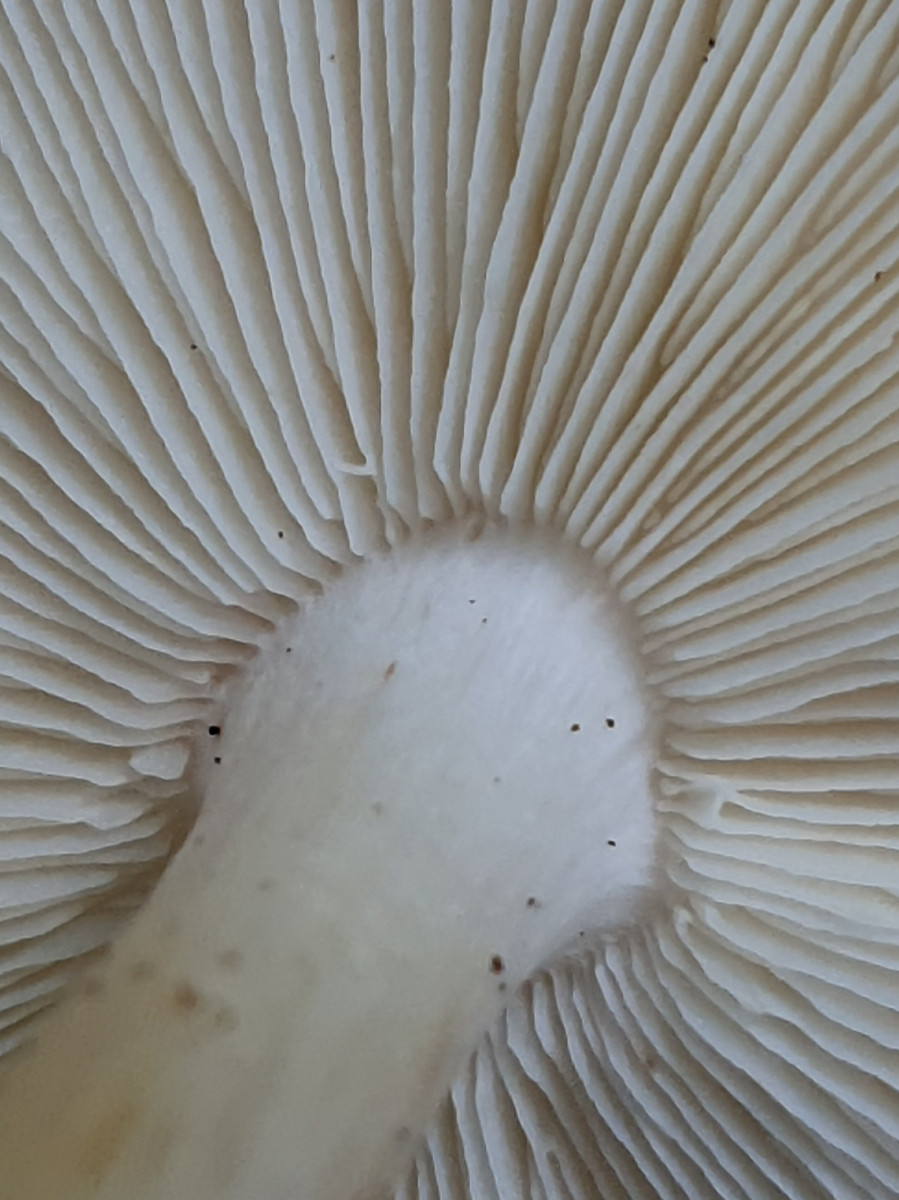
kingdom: Fungi
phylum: Basidiomycota
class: Agaricomycetes
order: Agaricales
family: Omphalotaceae
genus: Rhodocollybia
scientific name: Rhodocollybia maculata
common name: plettet fladhat
